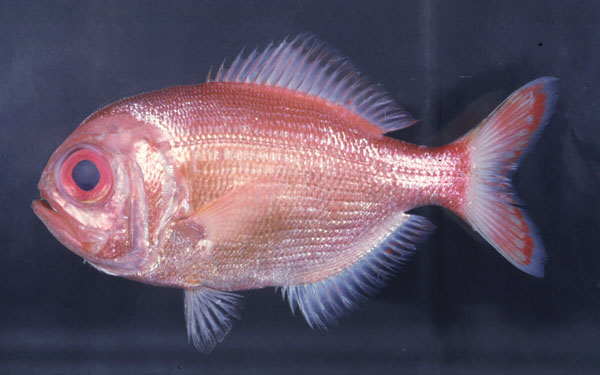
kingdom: Animalia
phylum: Chordata
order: Beryciformes
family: Berycidae
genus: Centroberyx
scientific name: Centroberyx spinosus
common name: Short alfonsino
